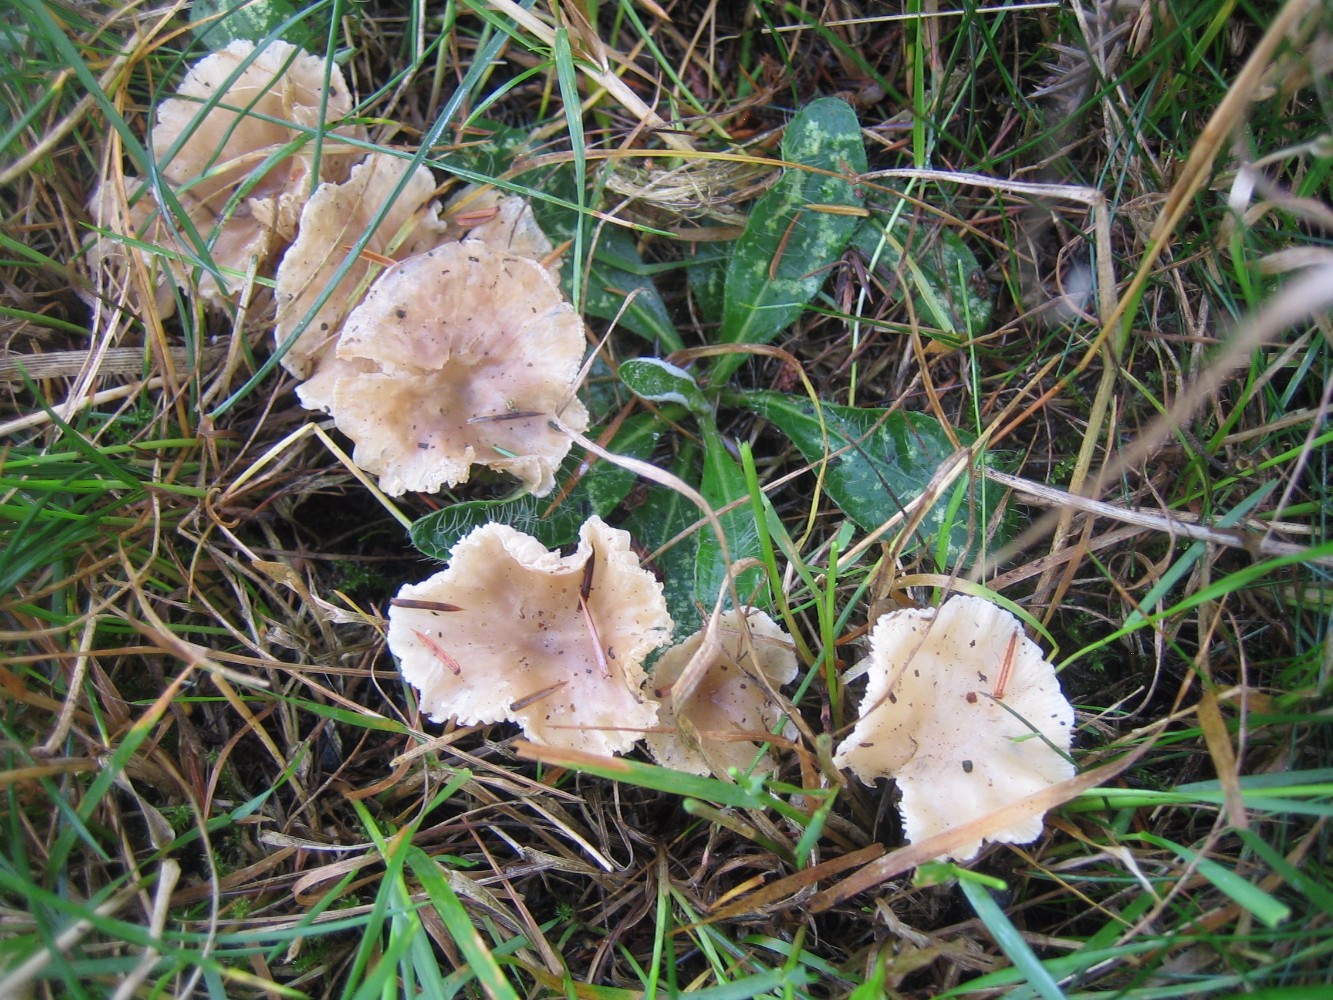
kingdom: Fungi
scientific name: Fungi
